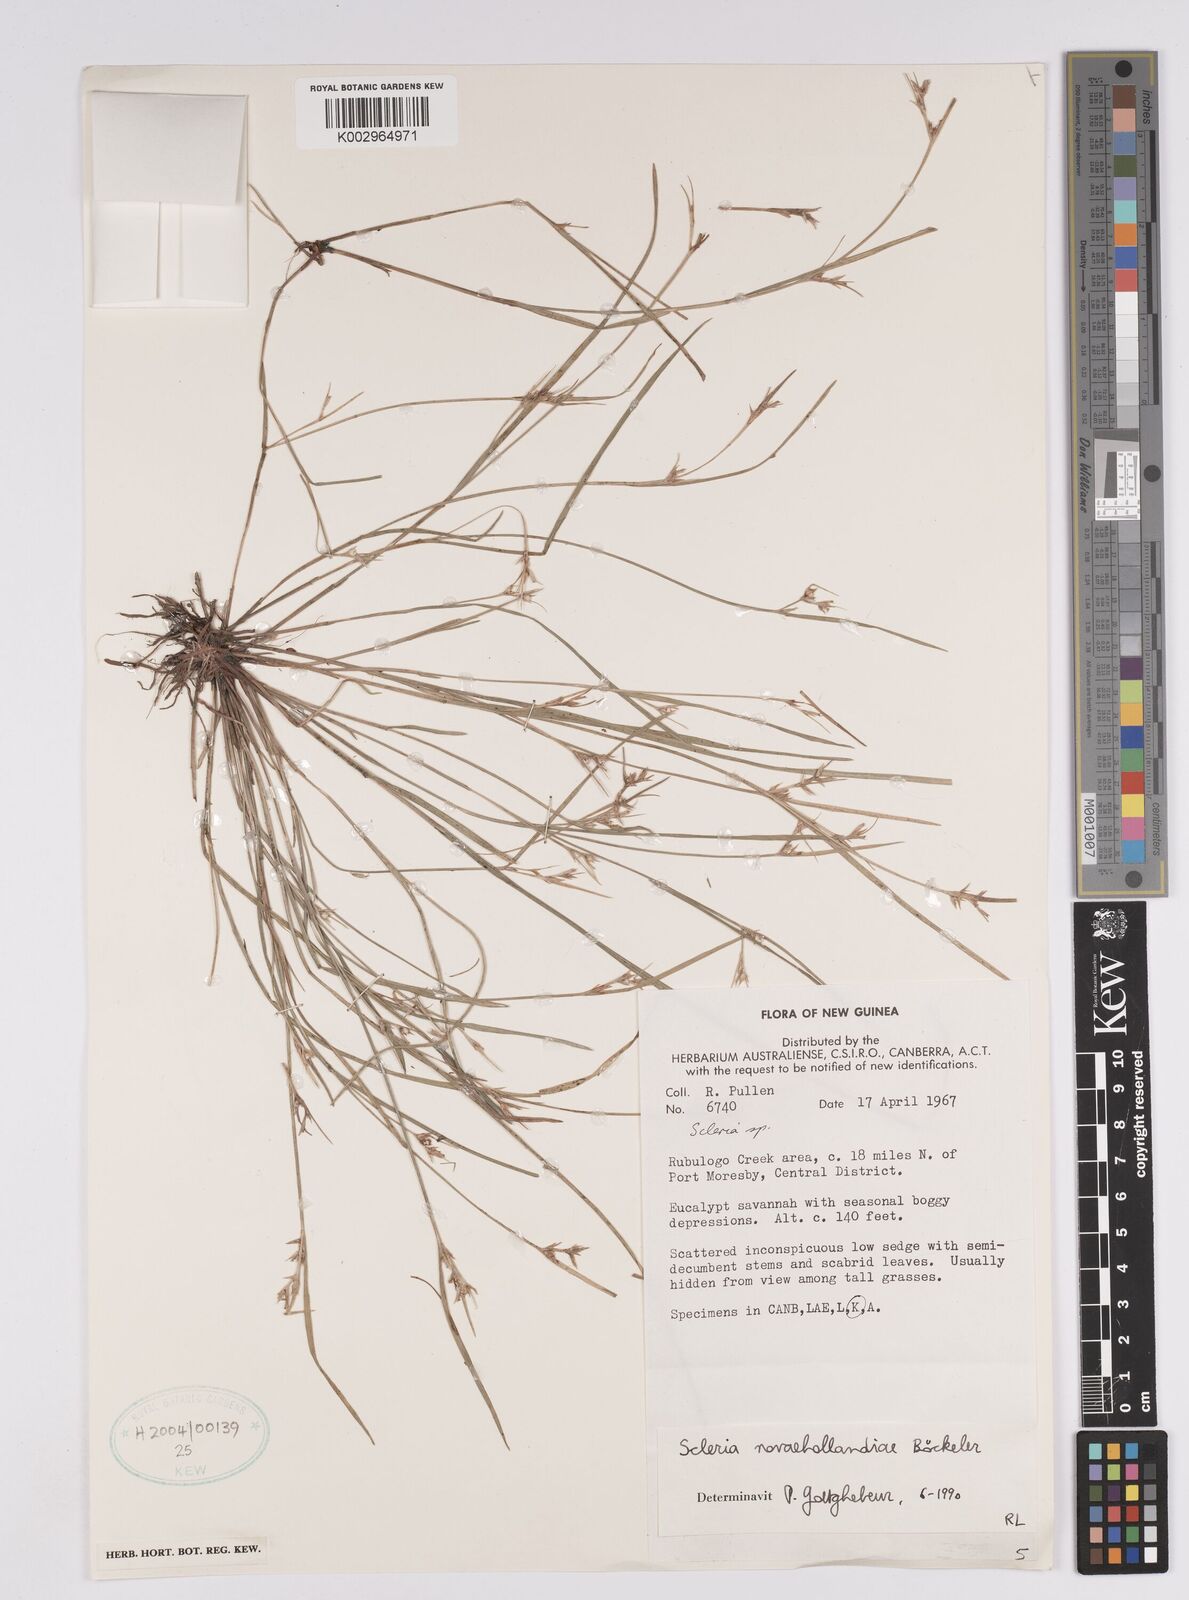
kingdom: Plantae
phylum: Tracheophyta
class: Liliopsida
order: Poales
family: Cyperaceae
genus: Scleria
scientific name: Scleria novae-hollandiae
